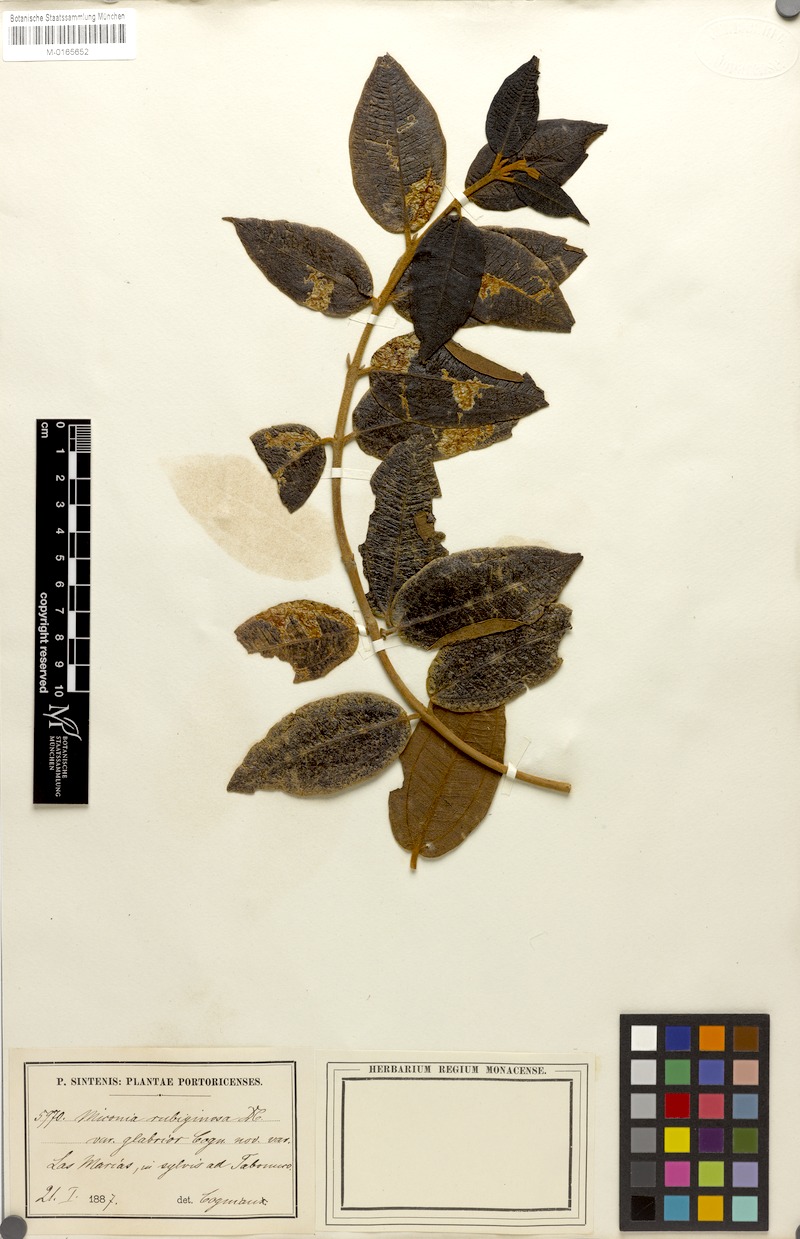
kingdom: Plantae
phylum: Tracheophyta
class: Magnoliopsida
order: Myrtales
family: Melastomataceae
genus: Miconia
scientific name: Miconia rubiginosa
